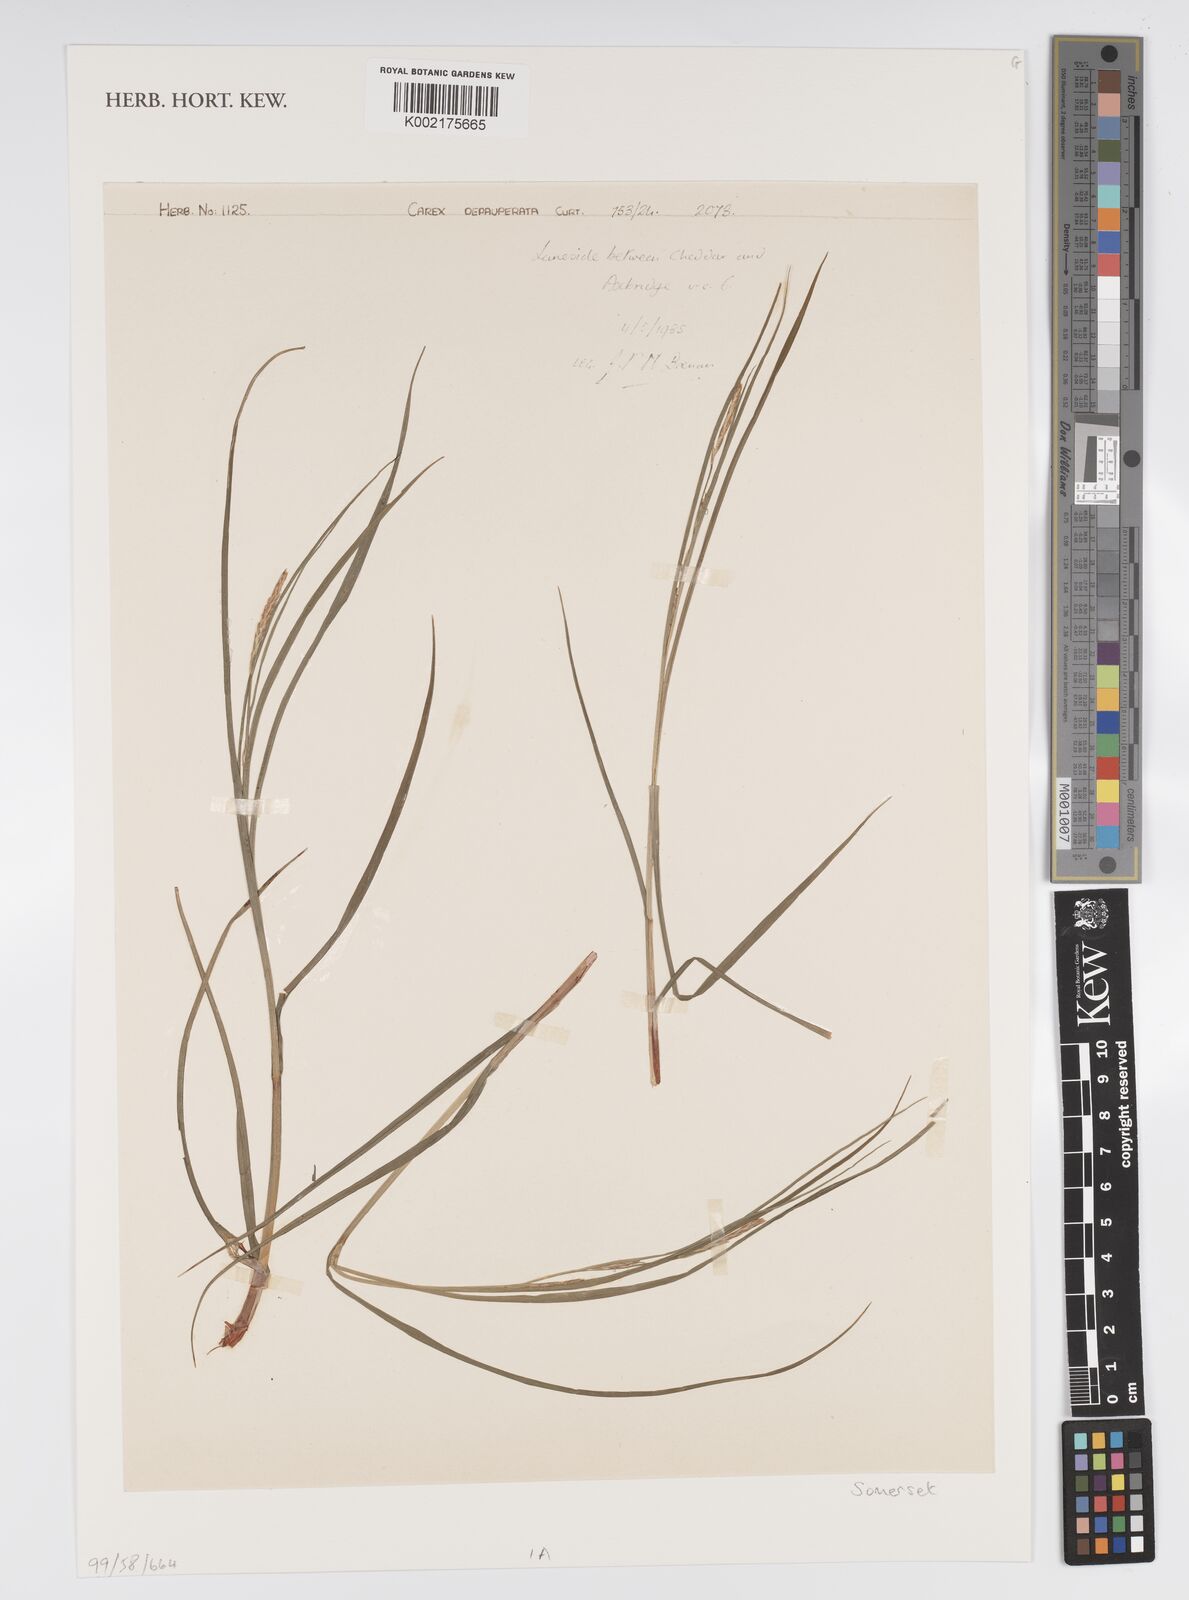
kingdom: Plantae
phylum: Tracheophyta
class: Liliopsida
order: Poales
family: Cyperaceae
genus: Carex
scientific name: Carex depauperata
